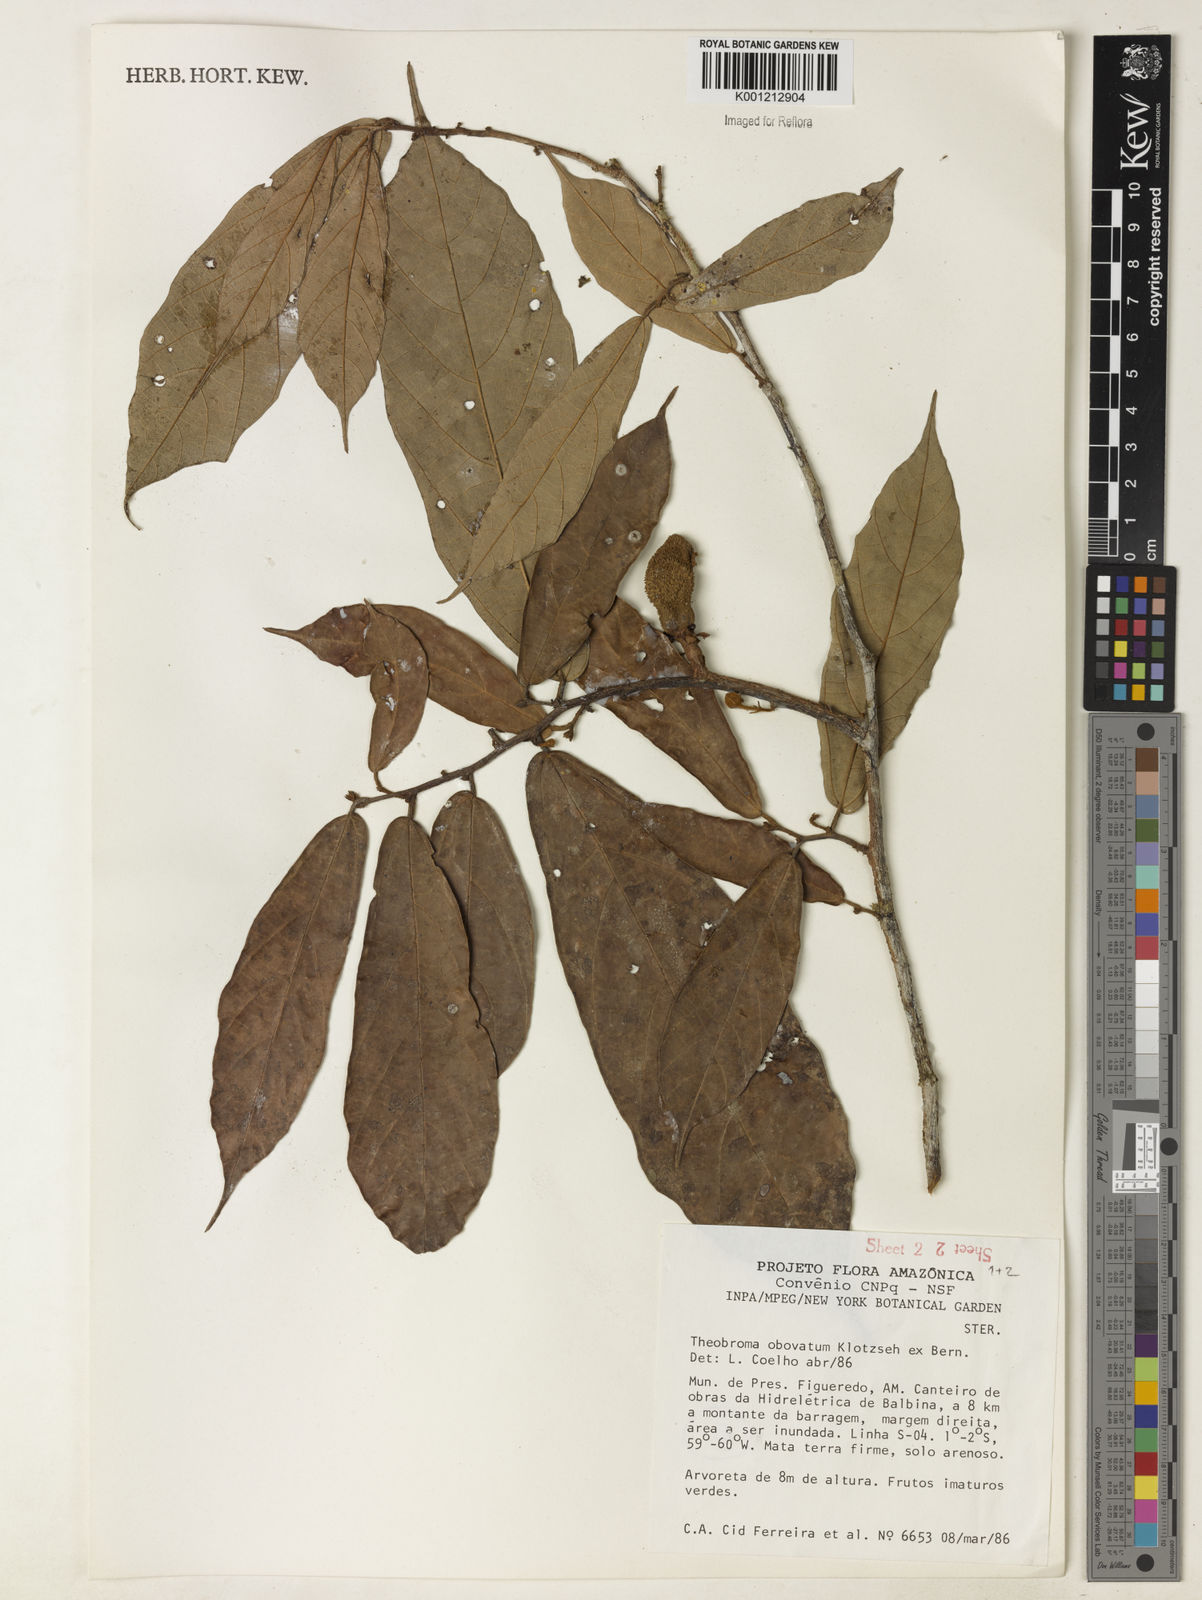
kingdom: Plantae
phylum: Tracheophyta
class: Magnoliopsida
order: Malvales
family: Malvaceae
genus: Theobroma
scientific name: Theobroma obovatum
